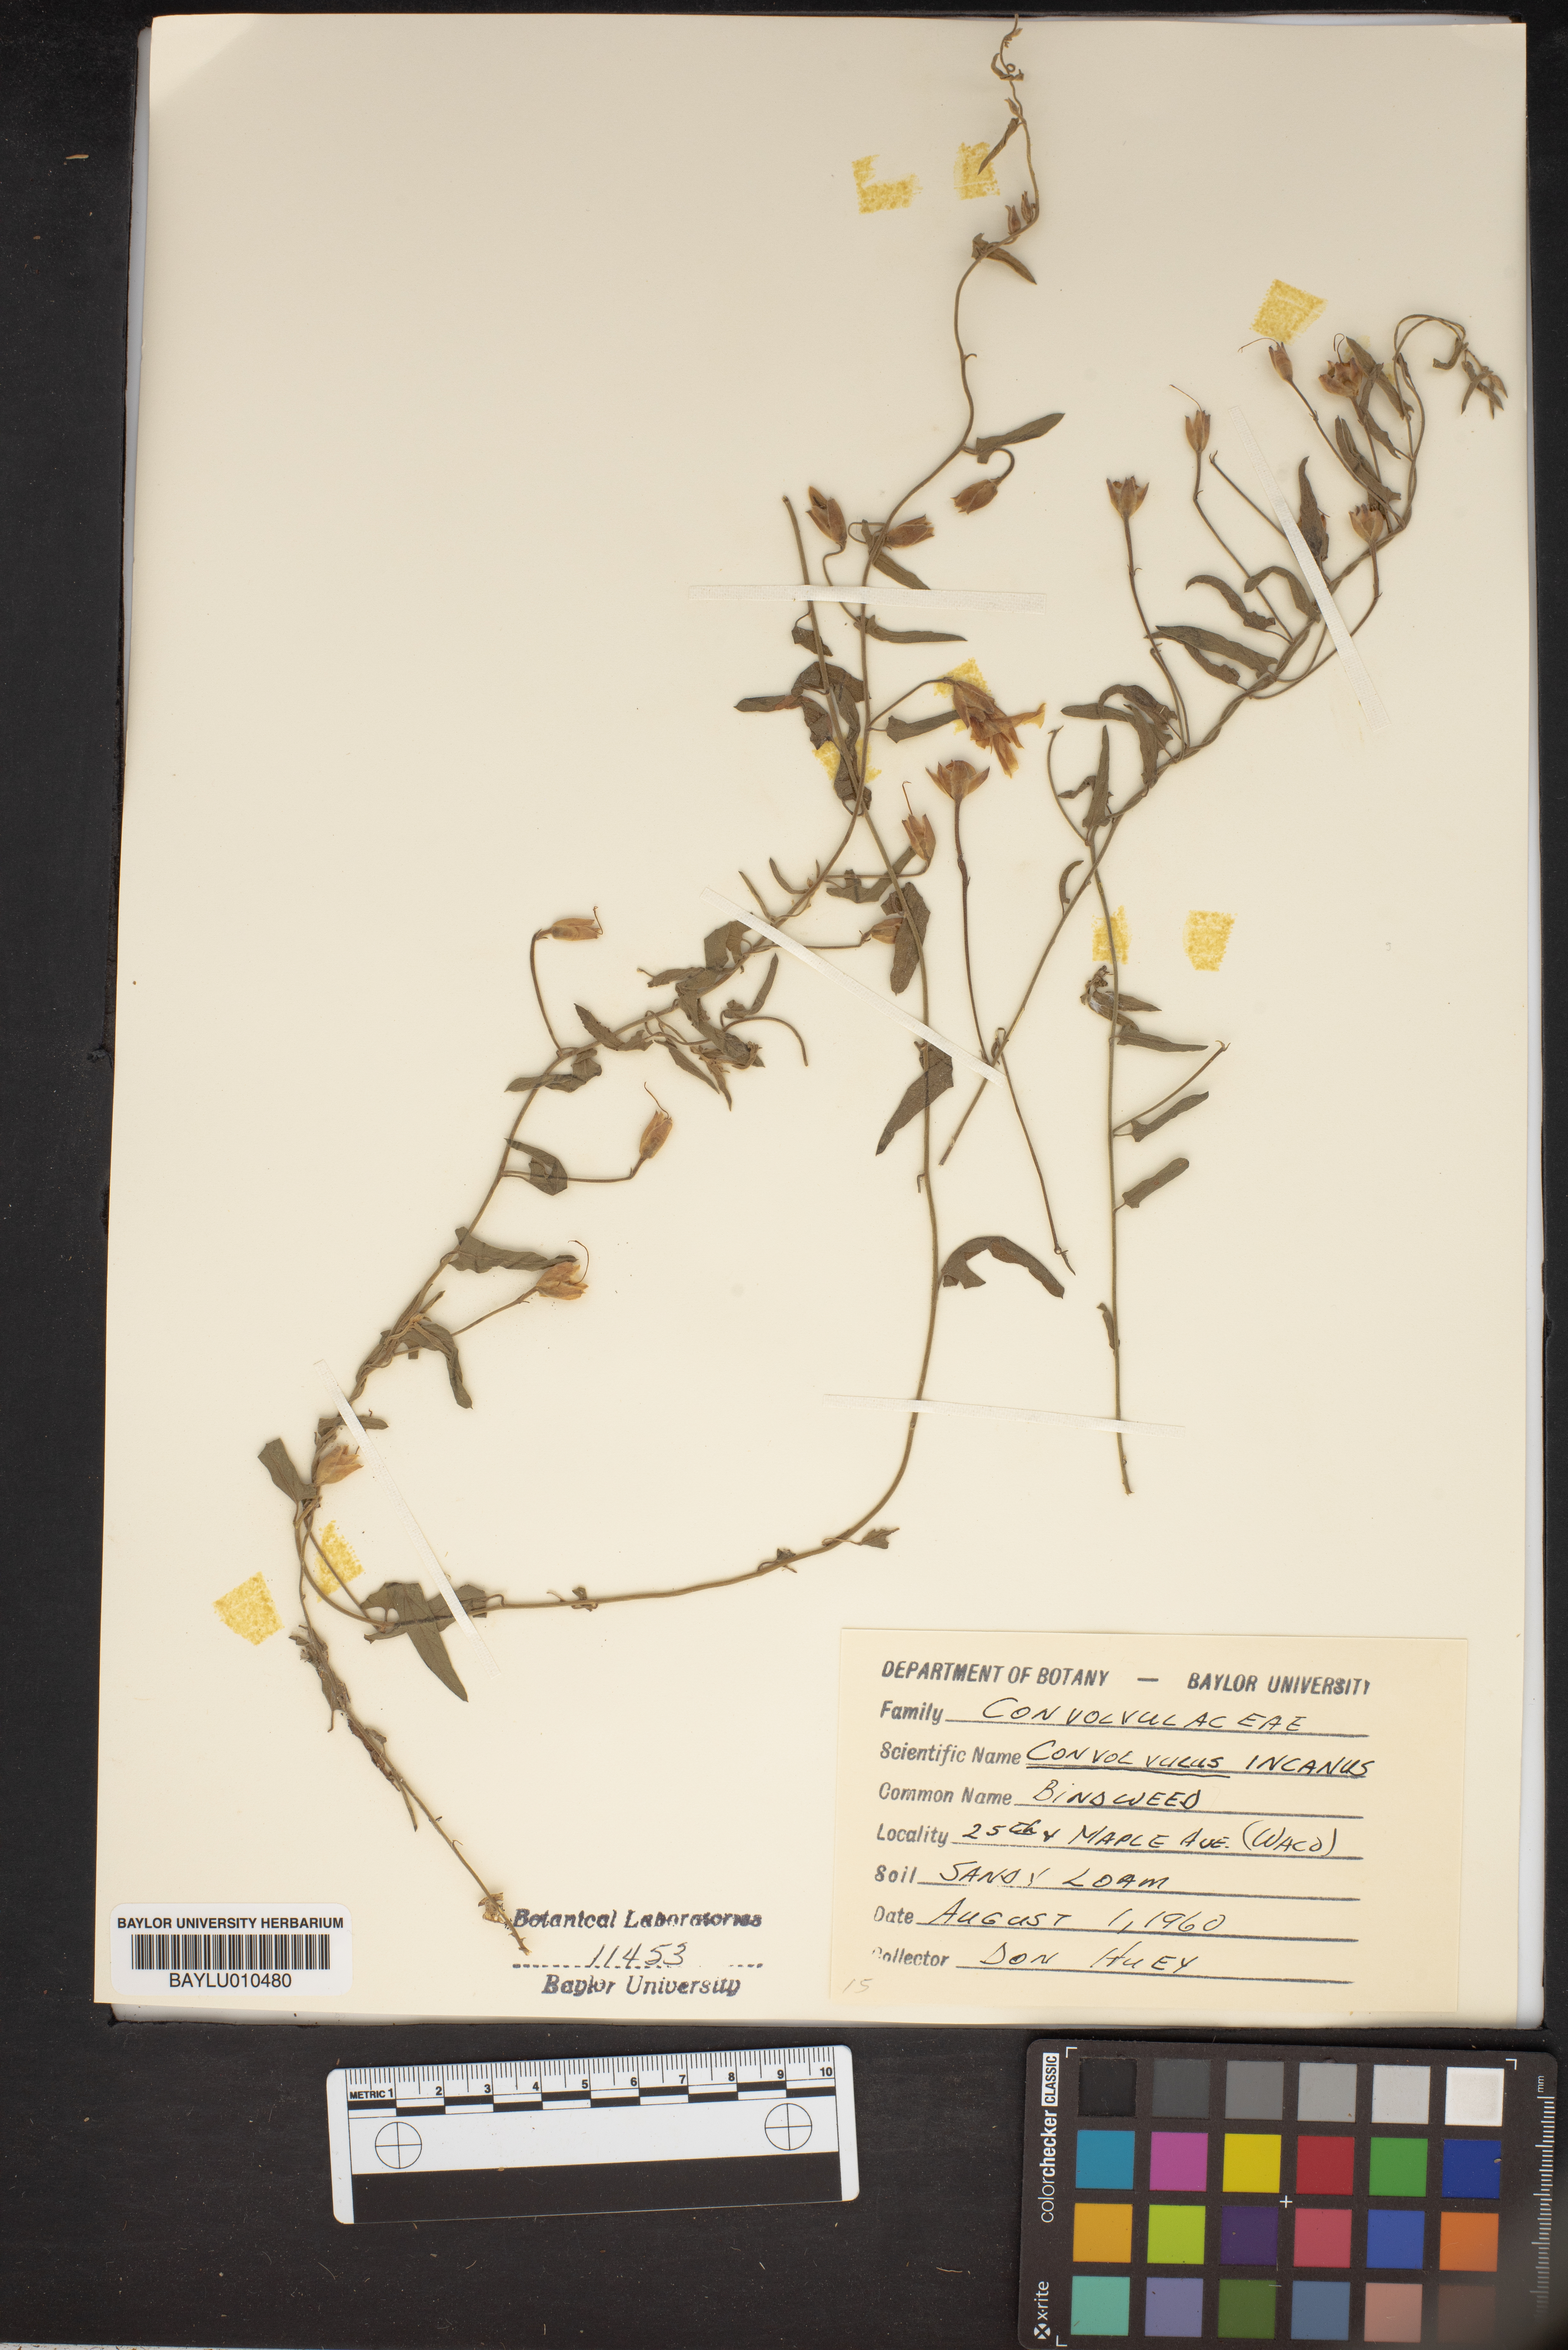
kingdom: Plantae
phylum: Tracheophyta
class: Magnoliopsida
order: Solanales
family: Convolvulaceae
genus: Convolvulus
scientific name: Convolvulus hermanniae
